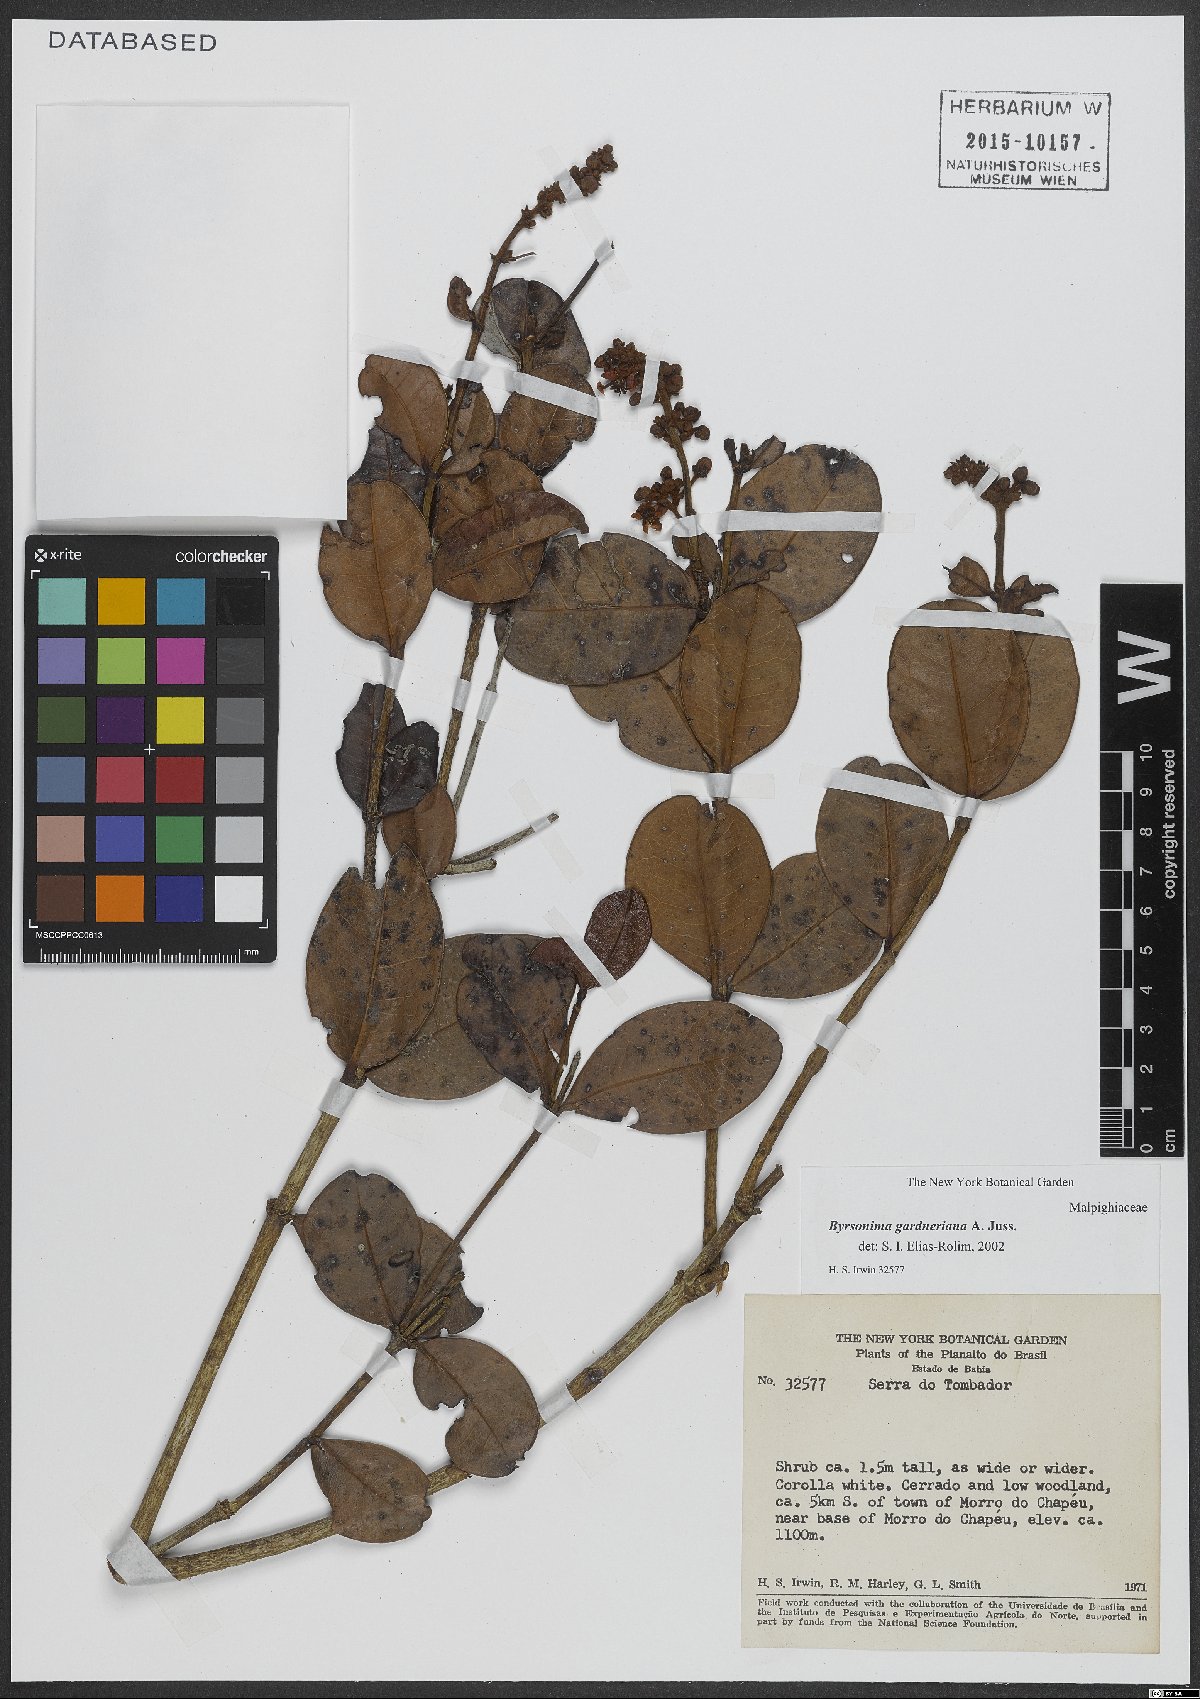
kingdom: Plantae
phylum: Tracheophyta
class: Magnoliopsida
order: Malpighiales
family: Malpighiaceae
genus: Byrsonima
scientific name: Byrsonima gardneriana
